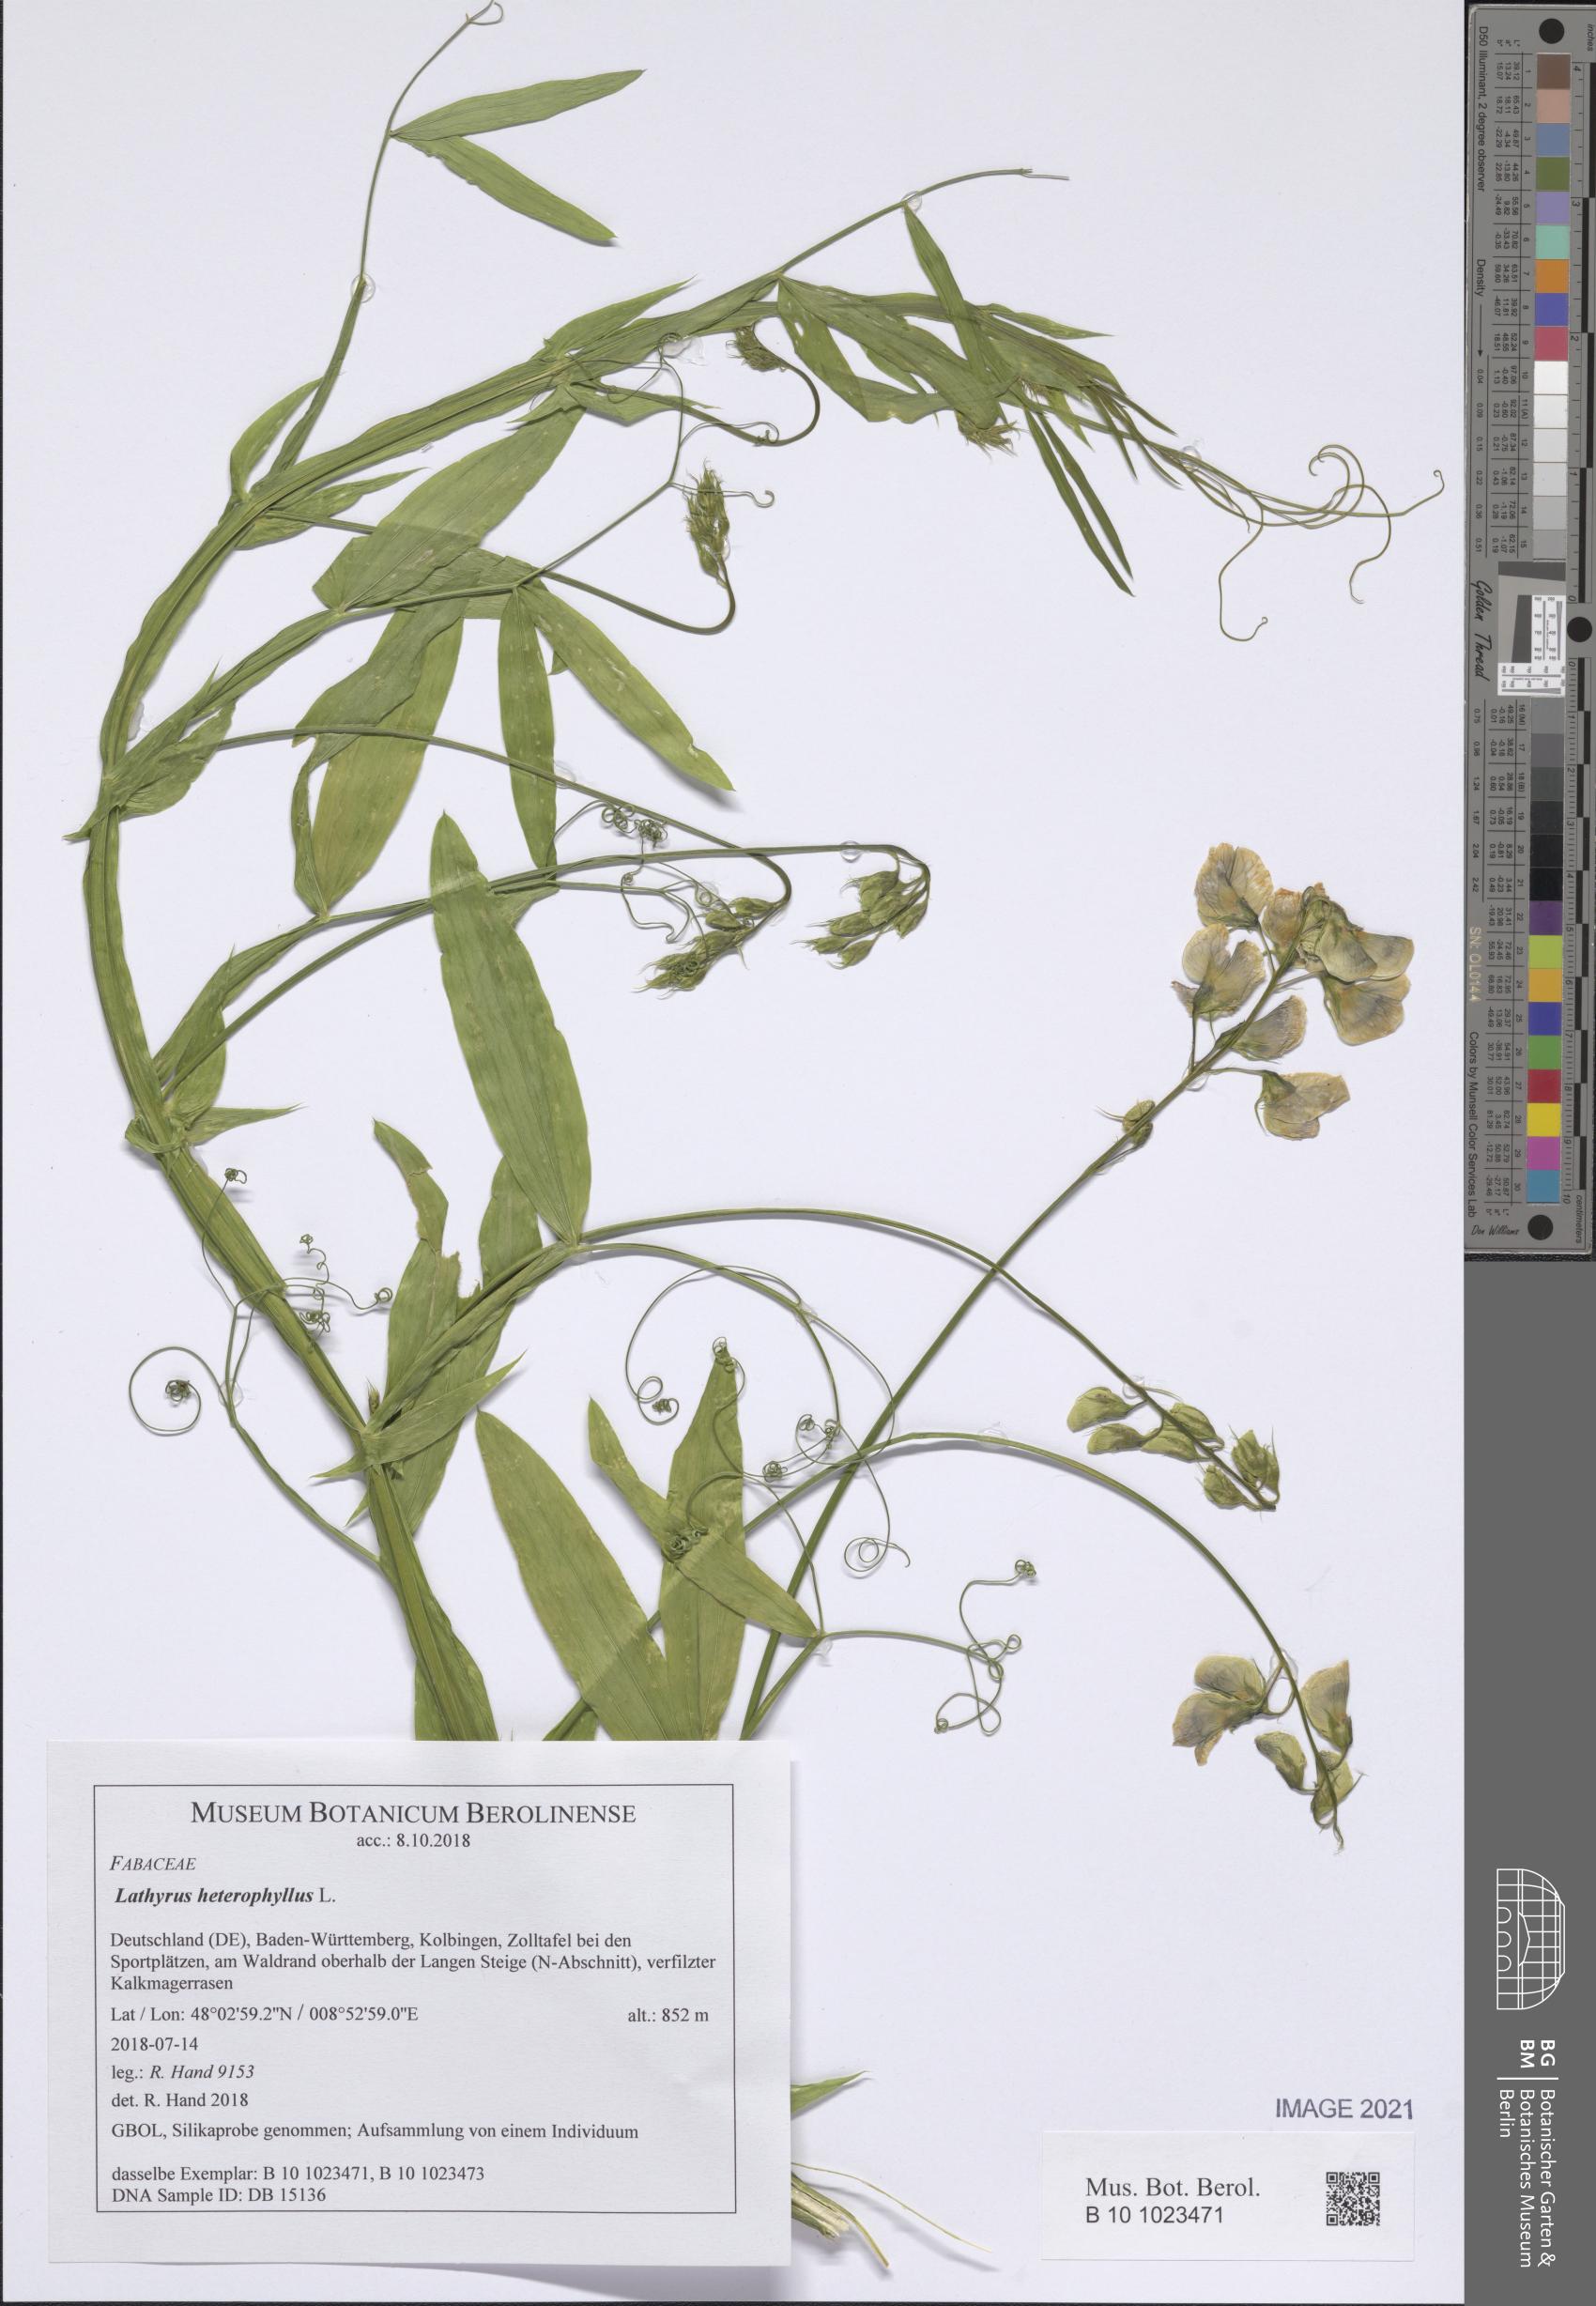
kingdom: Plantae
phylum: Tracheophyta
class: Magnoliopsida
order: Fabales
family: Fabaceae
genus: Lathyrus
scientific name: Lathyrus heterophyllus
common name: Norfolk everlasting-pea
